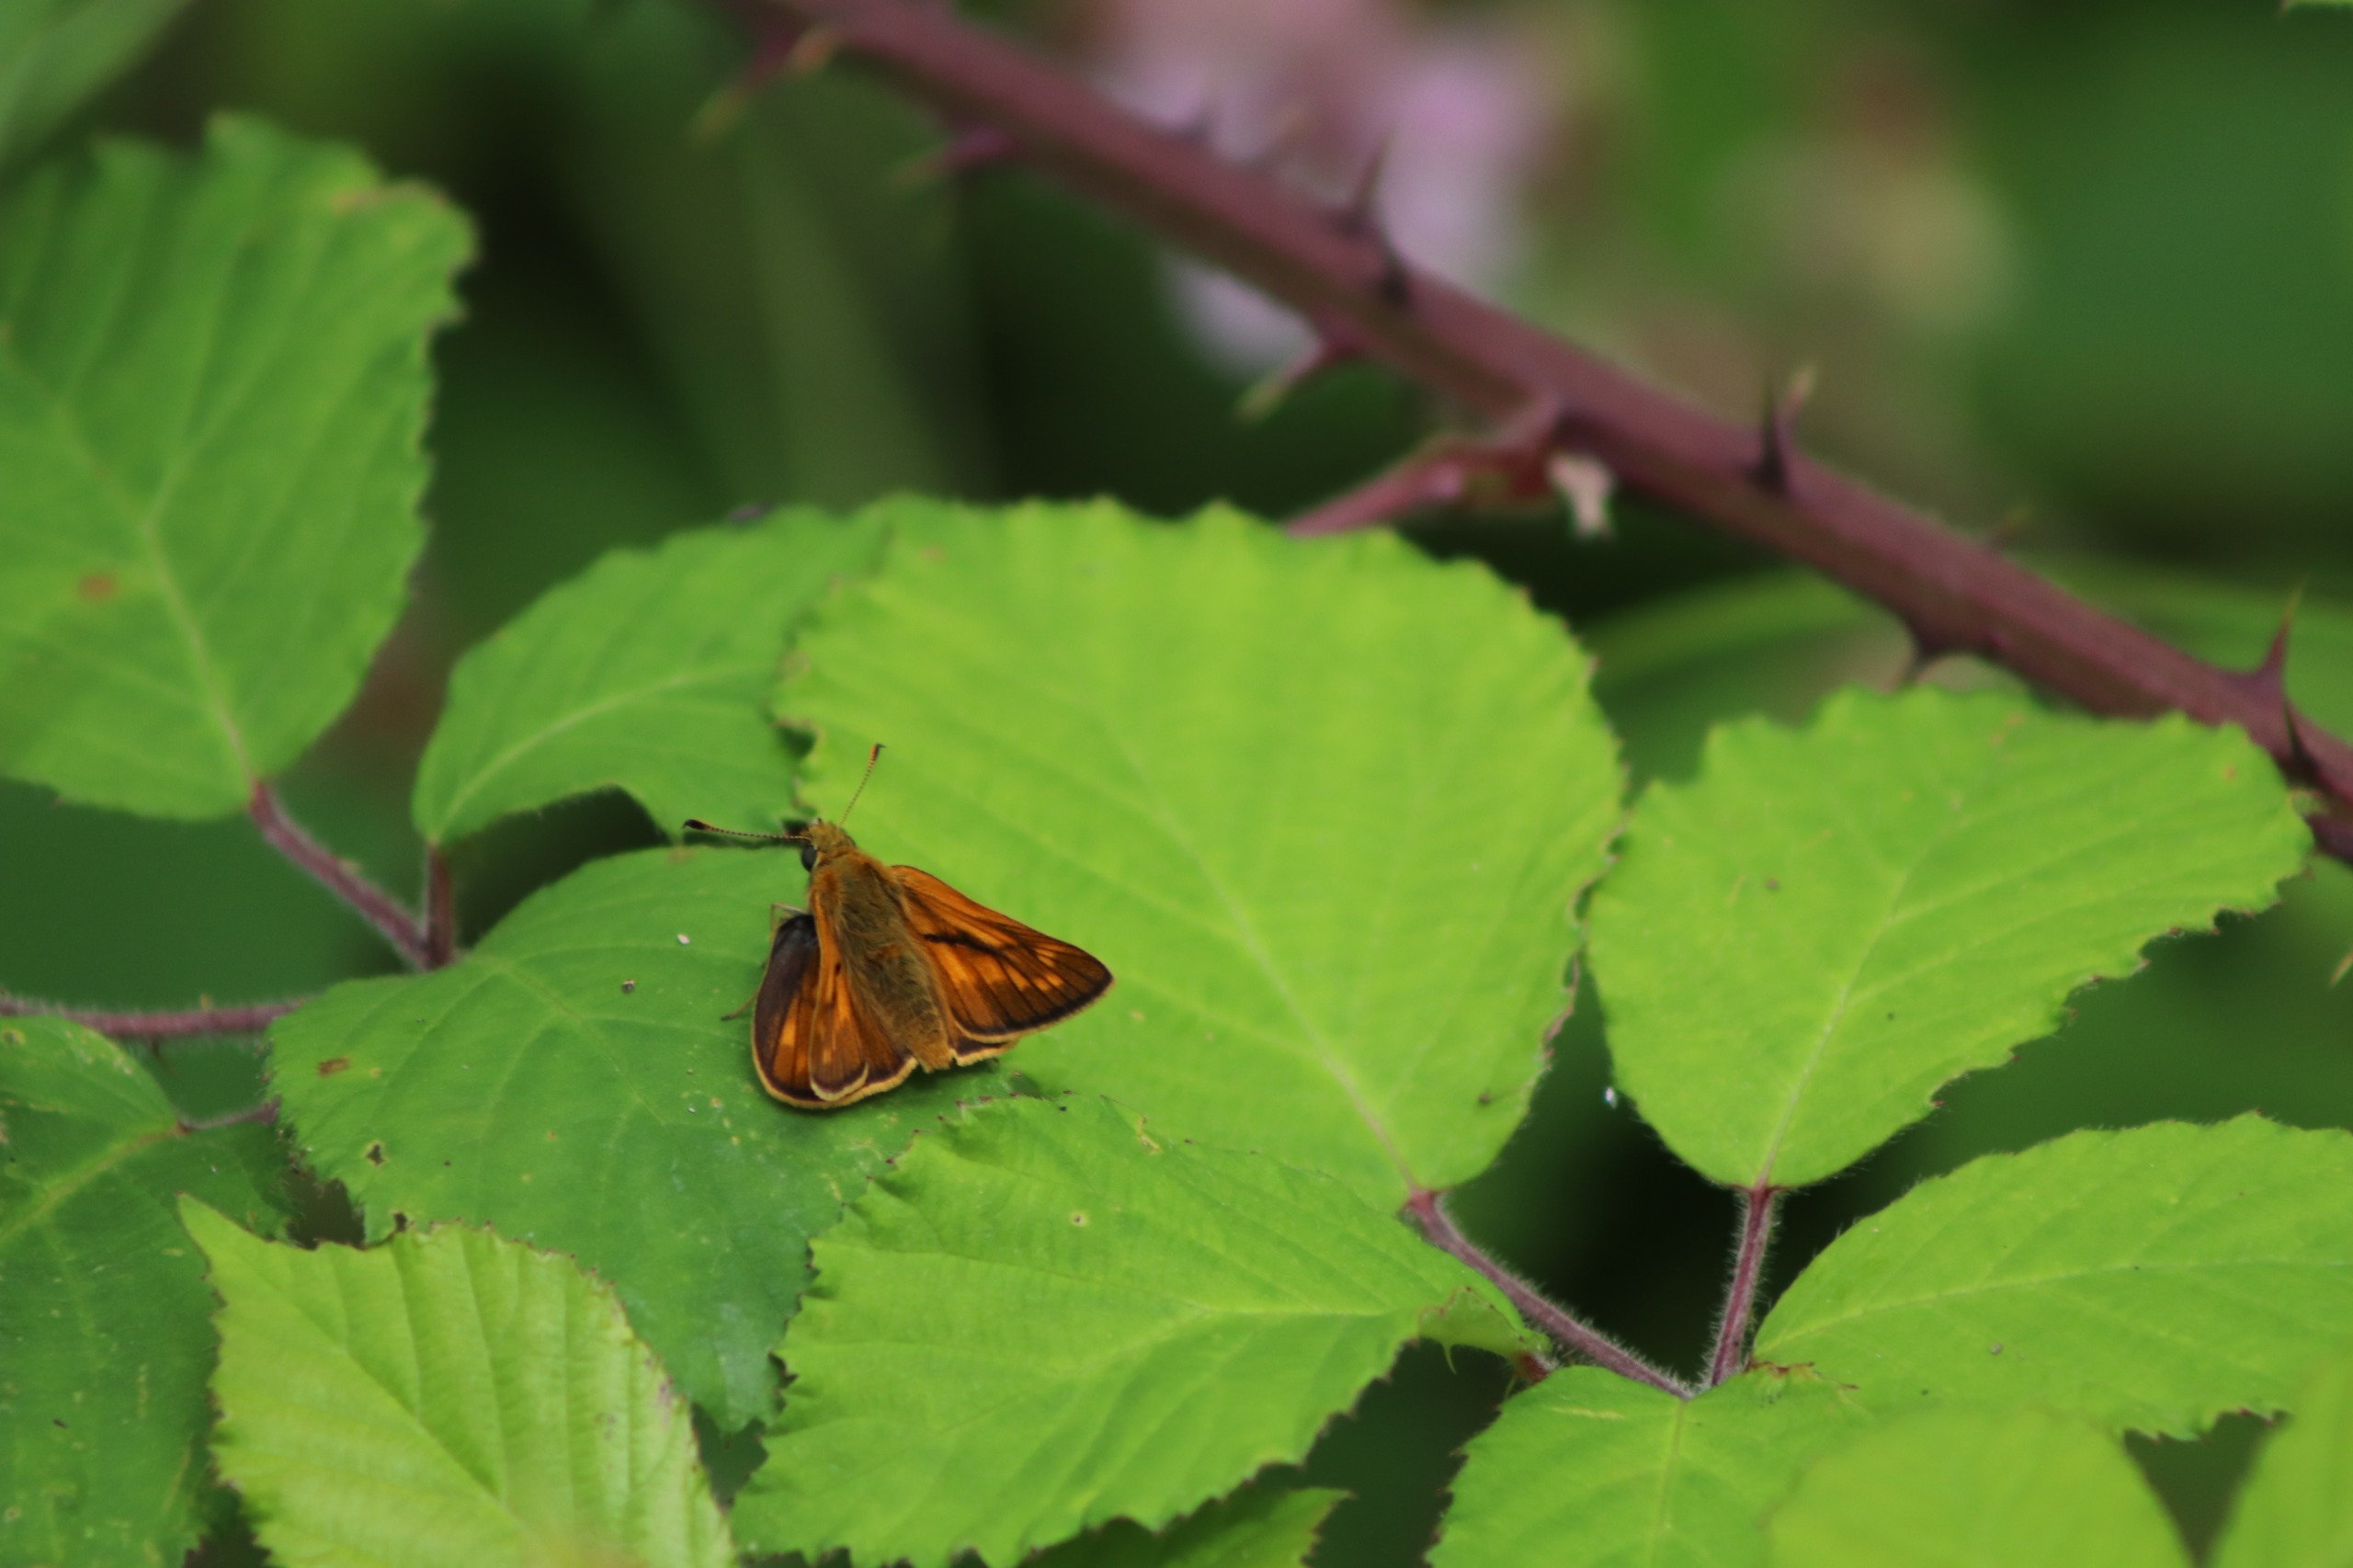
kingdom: Animalia
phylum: Arthropoda
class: Insecta
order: Lepidoptera
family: Hesperiidae
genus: Ochlodes
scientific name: Ochlodes venata
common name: Stor bredpande
